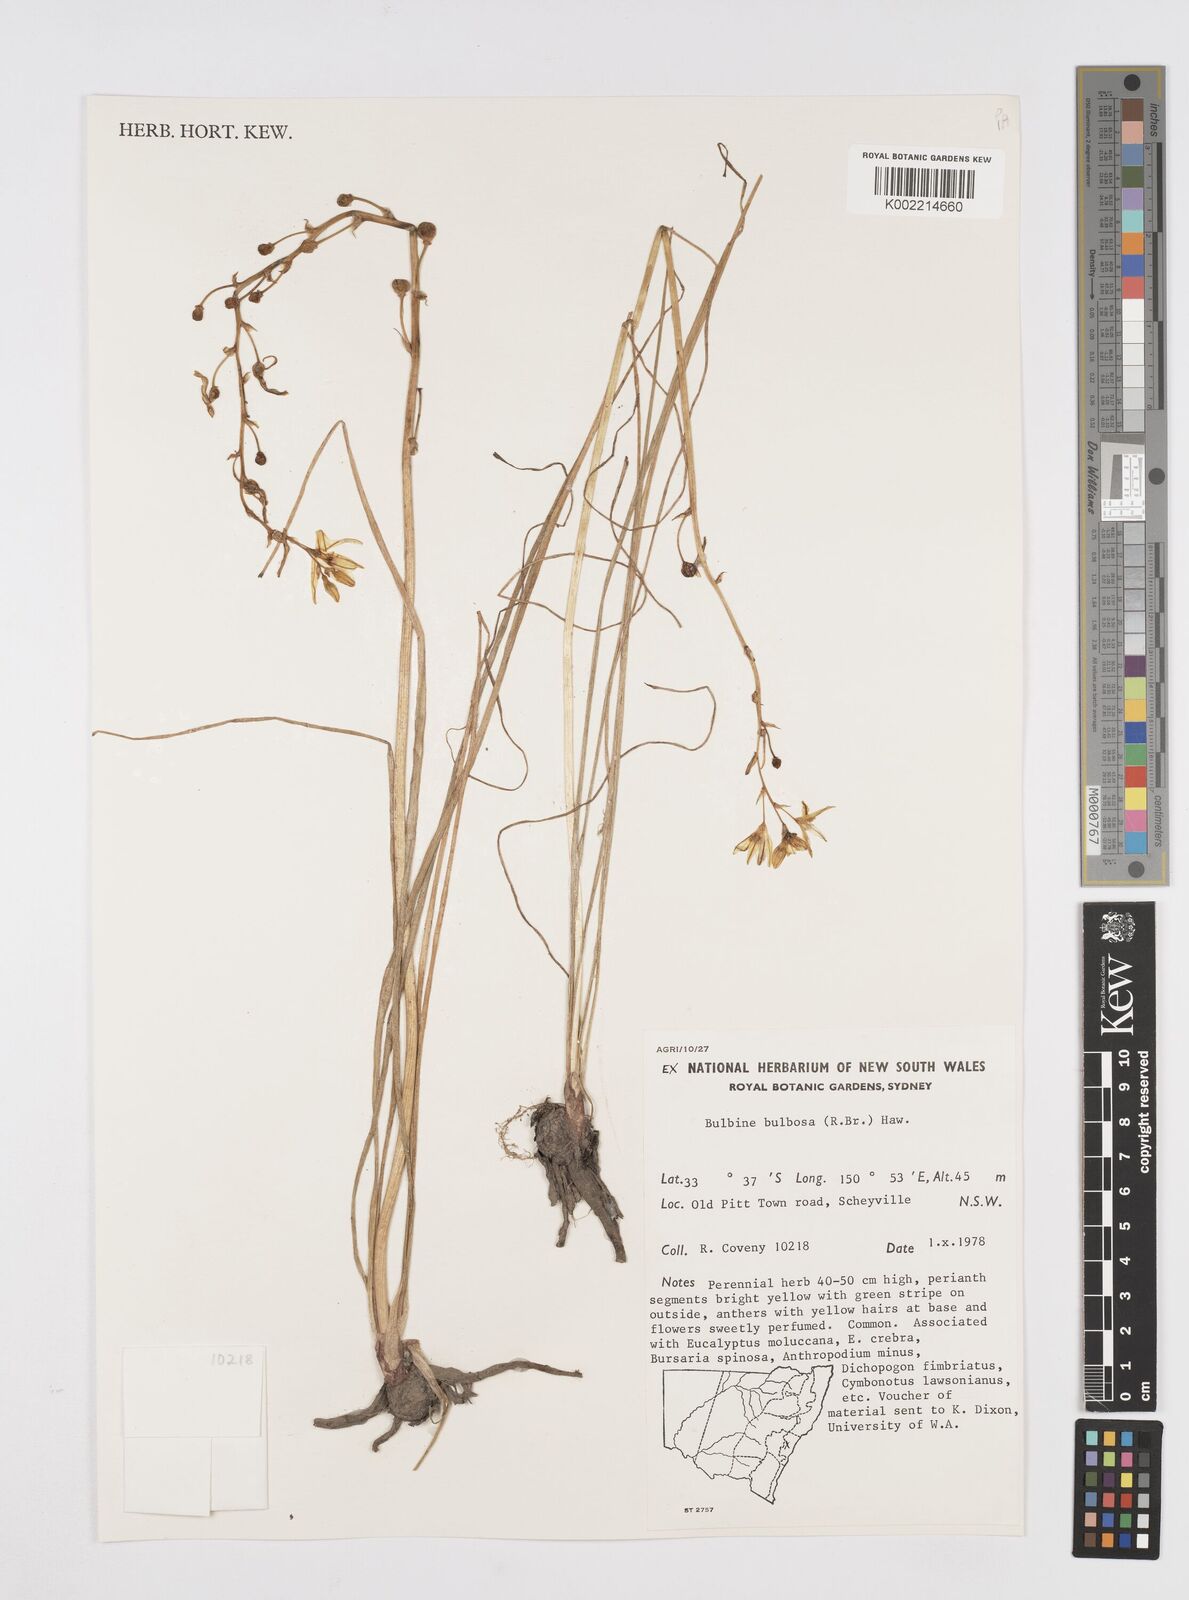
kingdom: Plantae
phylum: Tracheophyta
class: Liliopsida
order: Asparagales
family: Asphodelaceae
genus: Bulbine
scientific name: Bulbine bulbosa
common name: Golden-lily
